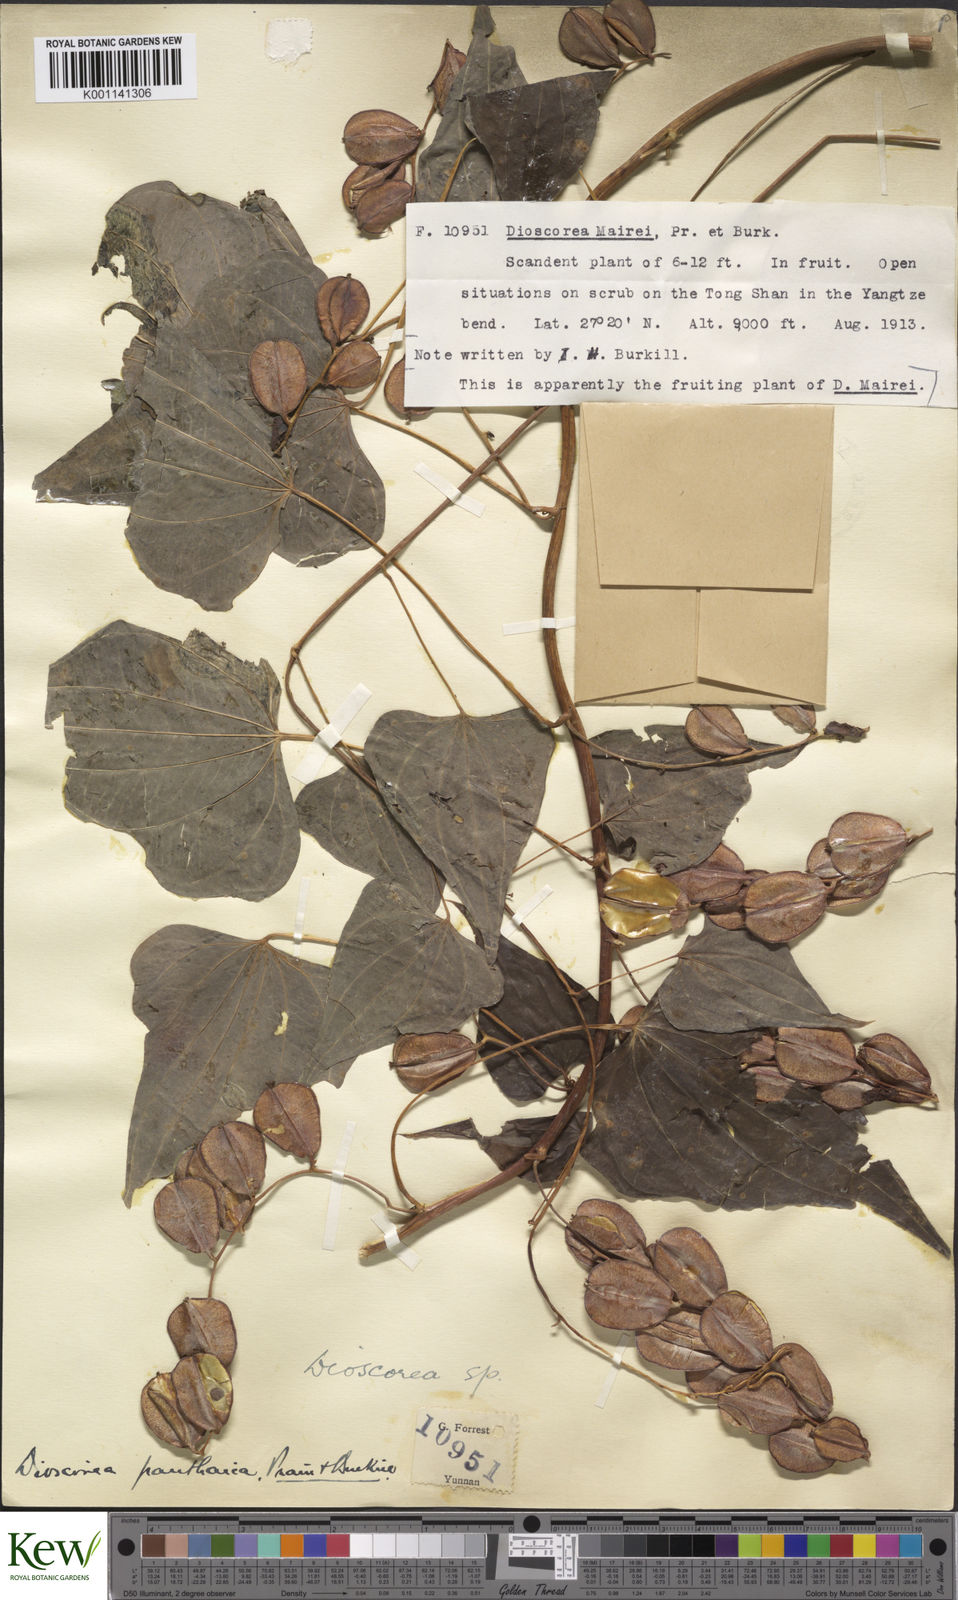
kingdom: Plantae
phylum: Tracheophyta
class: Liliopsida
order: Dioscoreales
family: Dioscoreaceae
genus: Dioscorea
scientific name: Dioscorea panthaica
